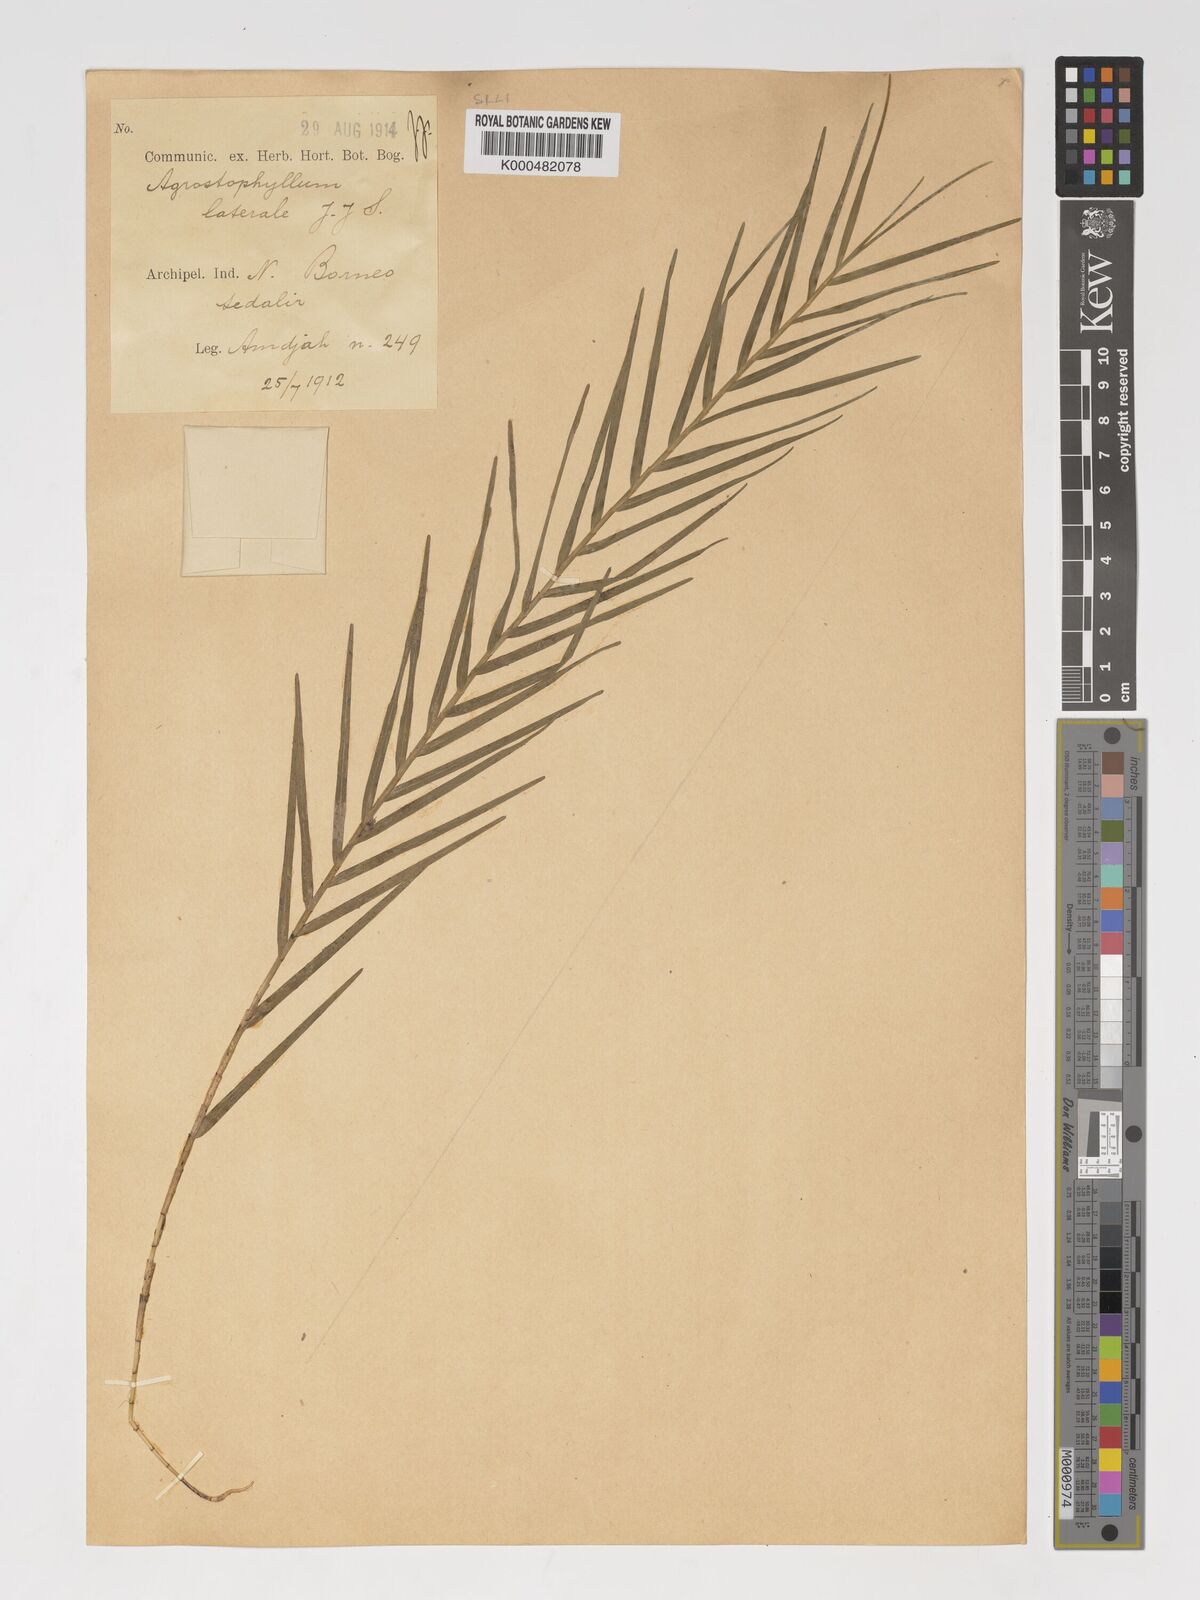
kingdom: Plantae
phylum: Tracheophyta
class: Liliopsida
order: Asparagales
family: Orchidaceae
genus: Agrostophyllum
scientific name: Agrostophyllum laterale
